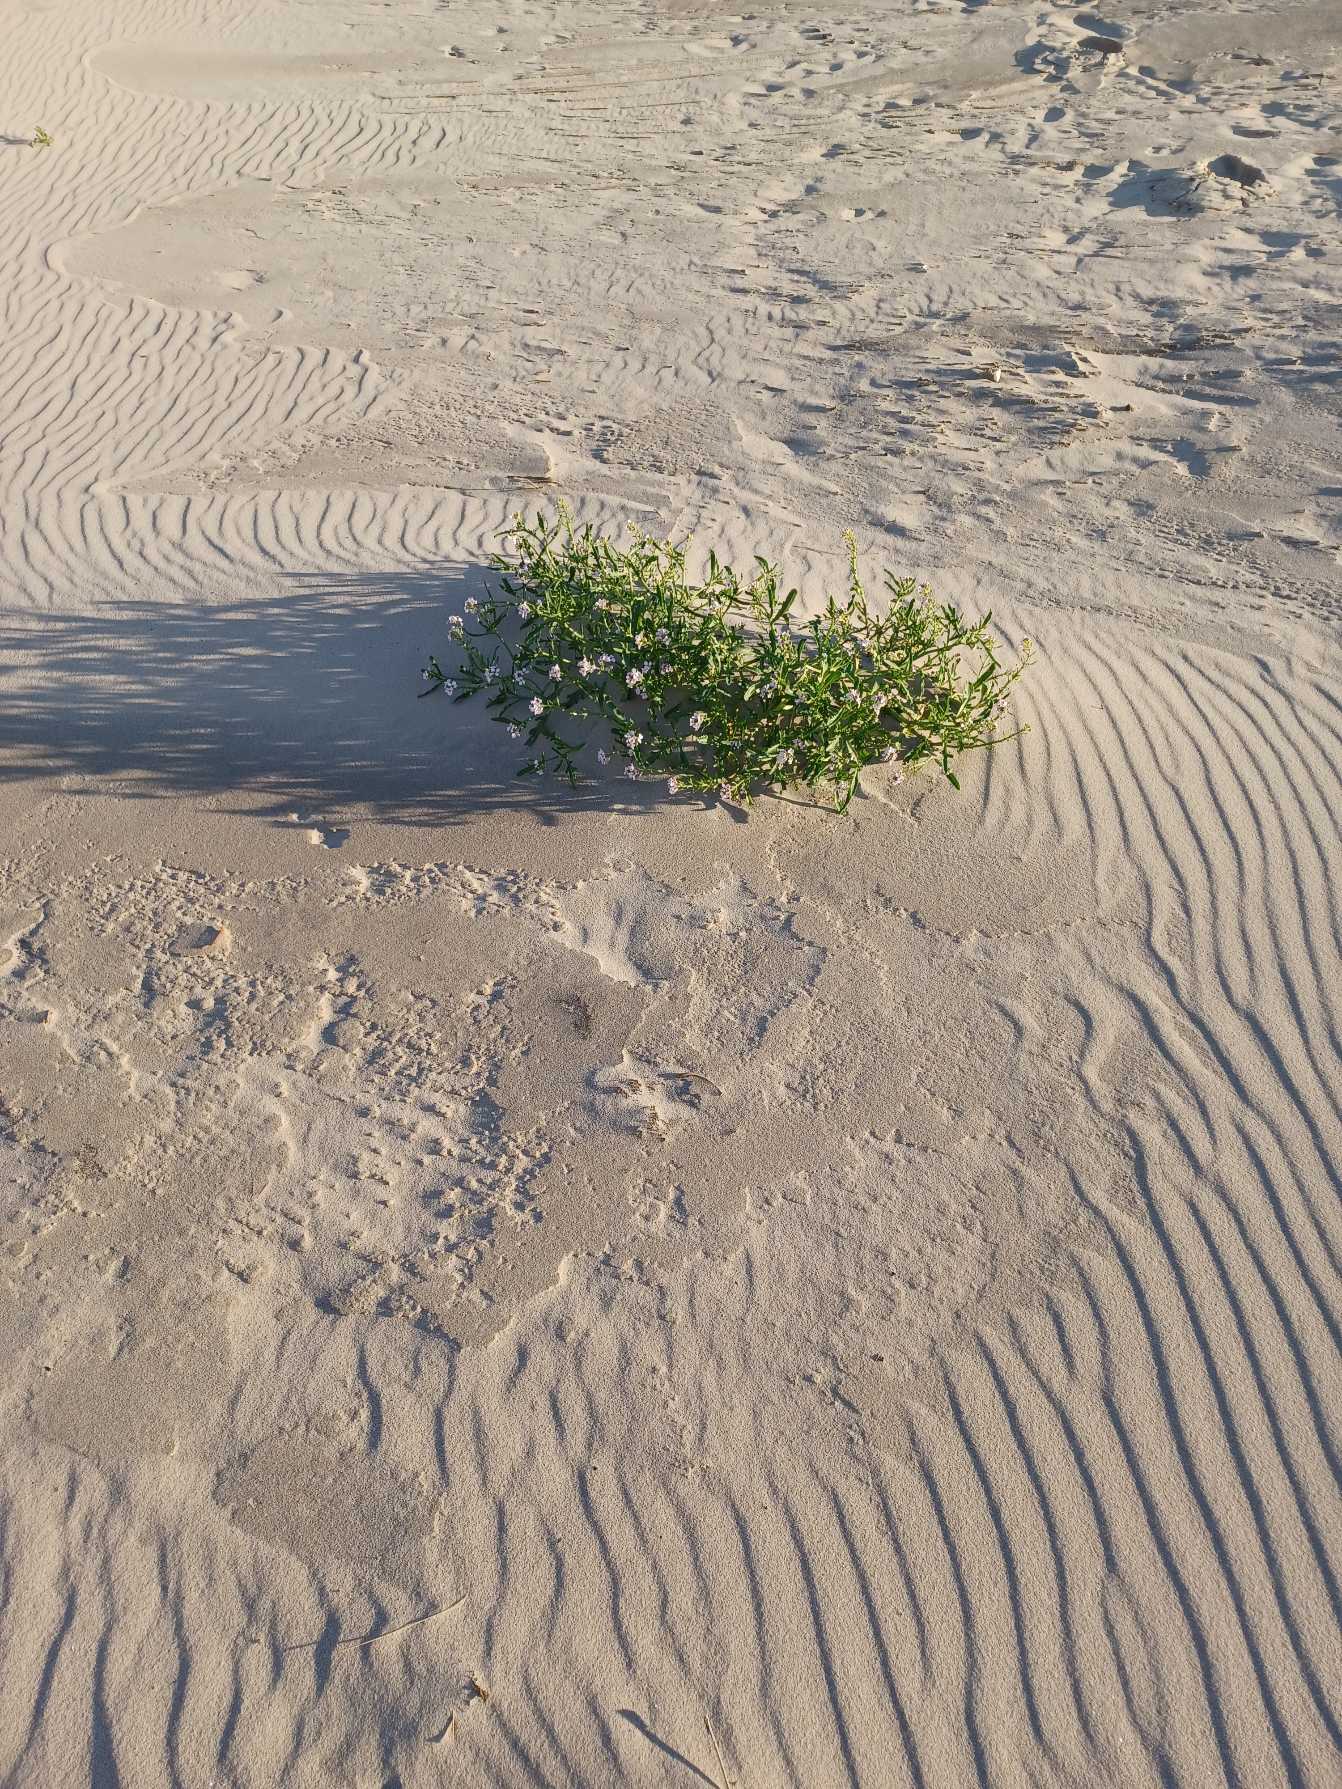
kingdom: Plantae
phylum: Tracheophyta
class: Magnoliopsida
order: Brassicales
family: Brassicaceae
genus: Cakile
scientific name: Cakile maritima
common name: Strandsennep
